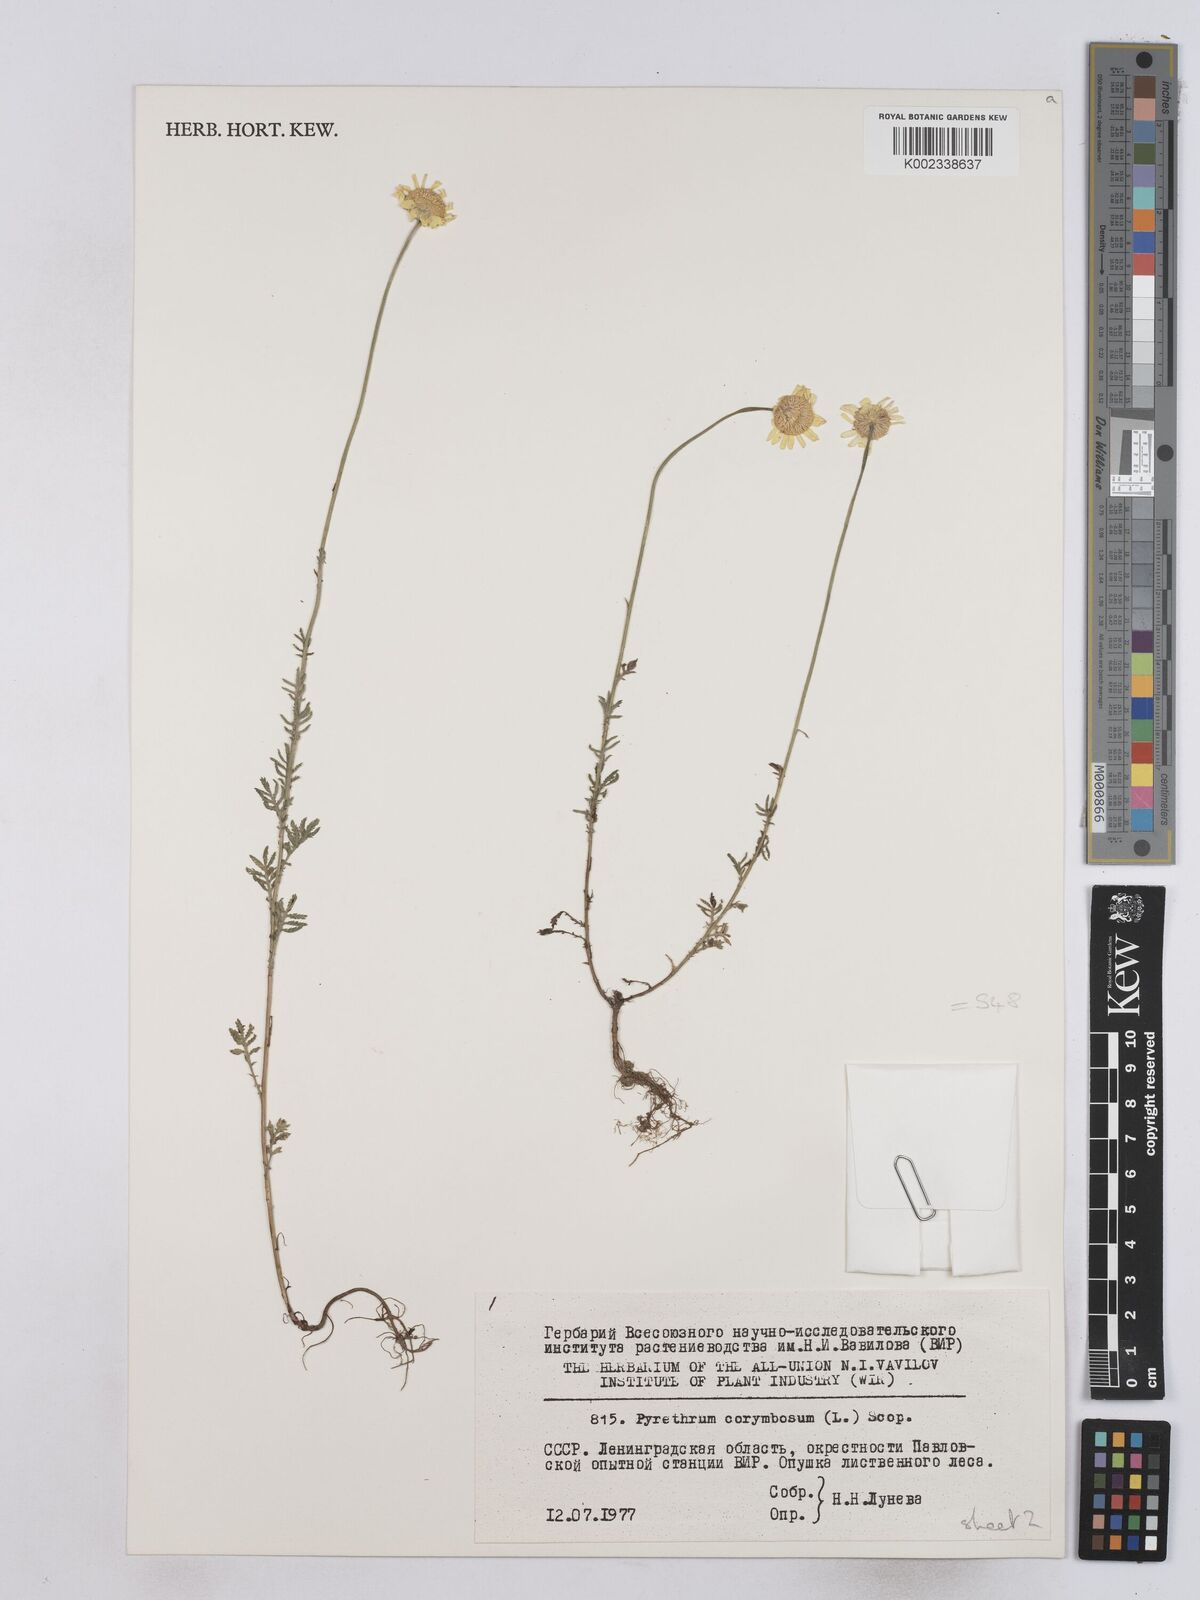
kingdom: Plantae
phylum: Tracheophyta
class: Magnoliopsida
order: Asterales
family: Asteraceae
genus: Tanacetum
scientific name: Tanacetum corymbosum
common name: Scentless feverfew
